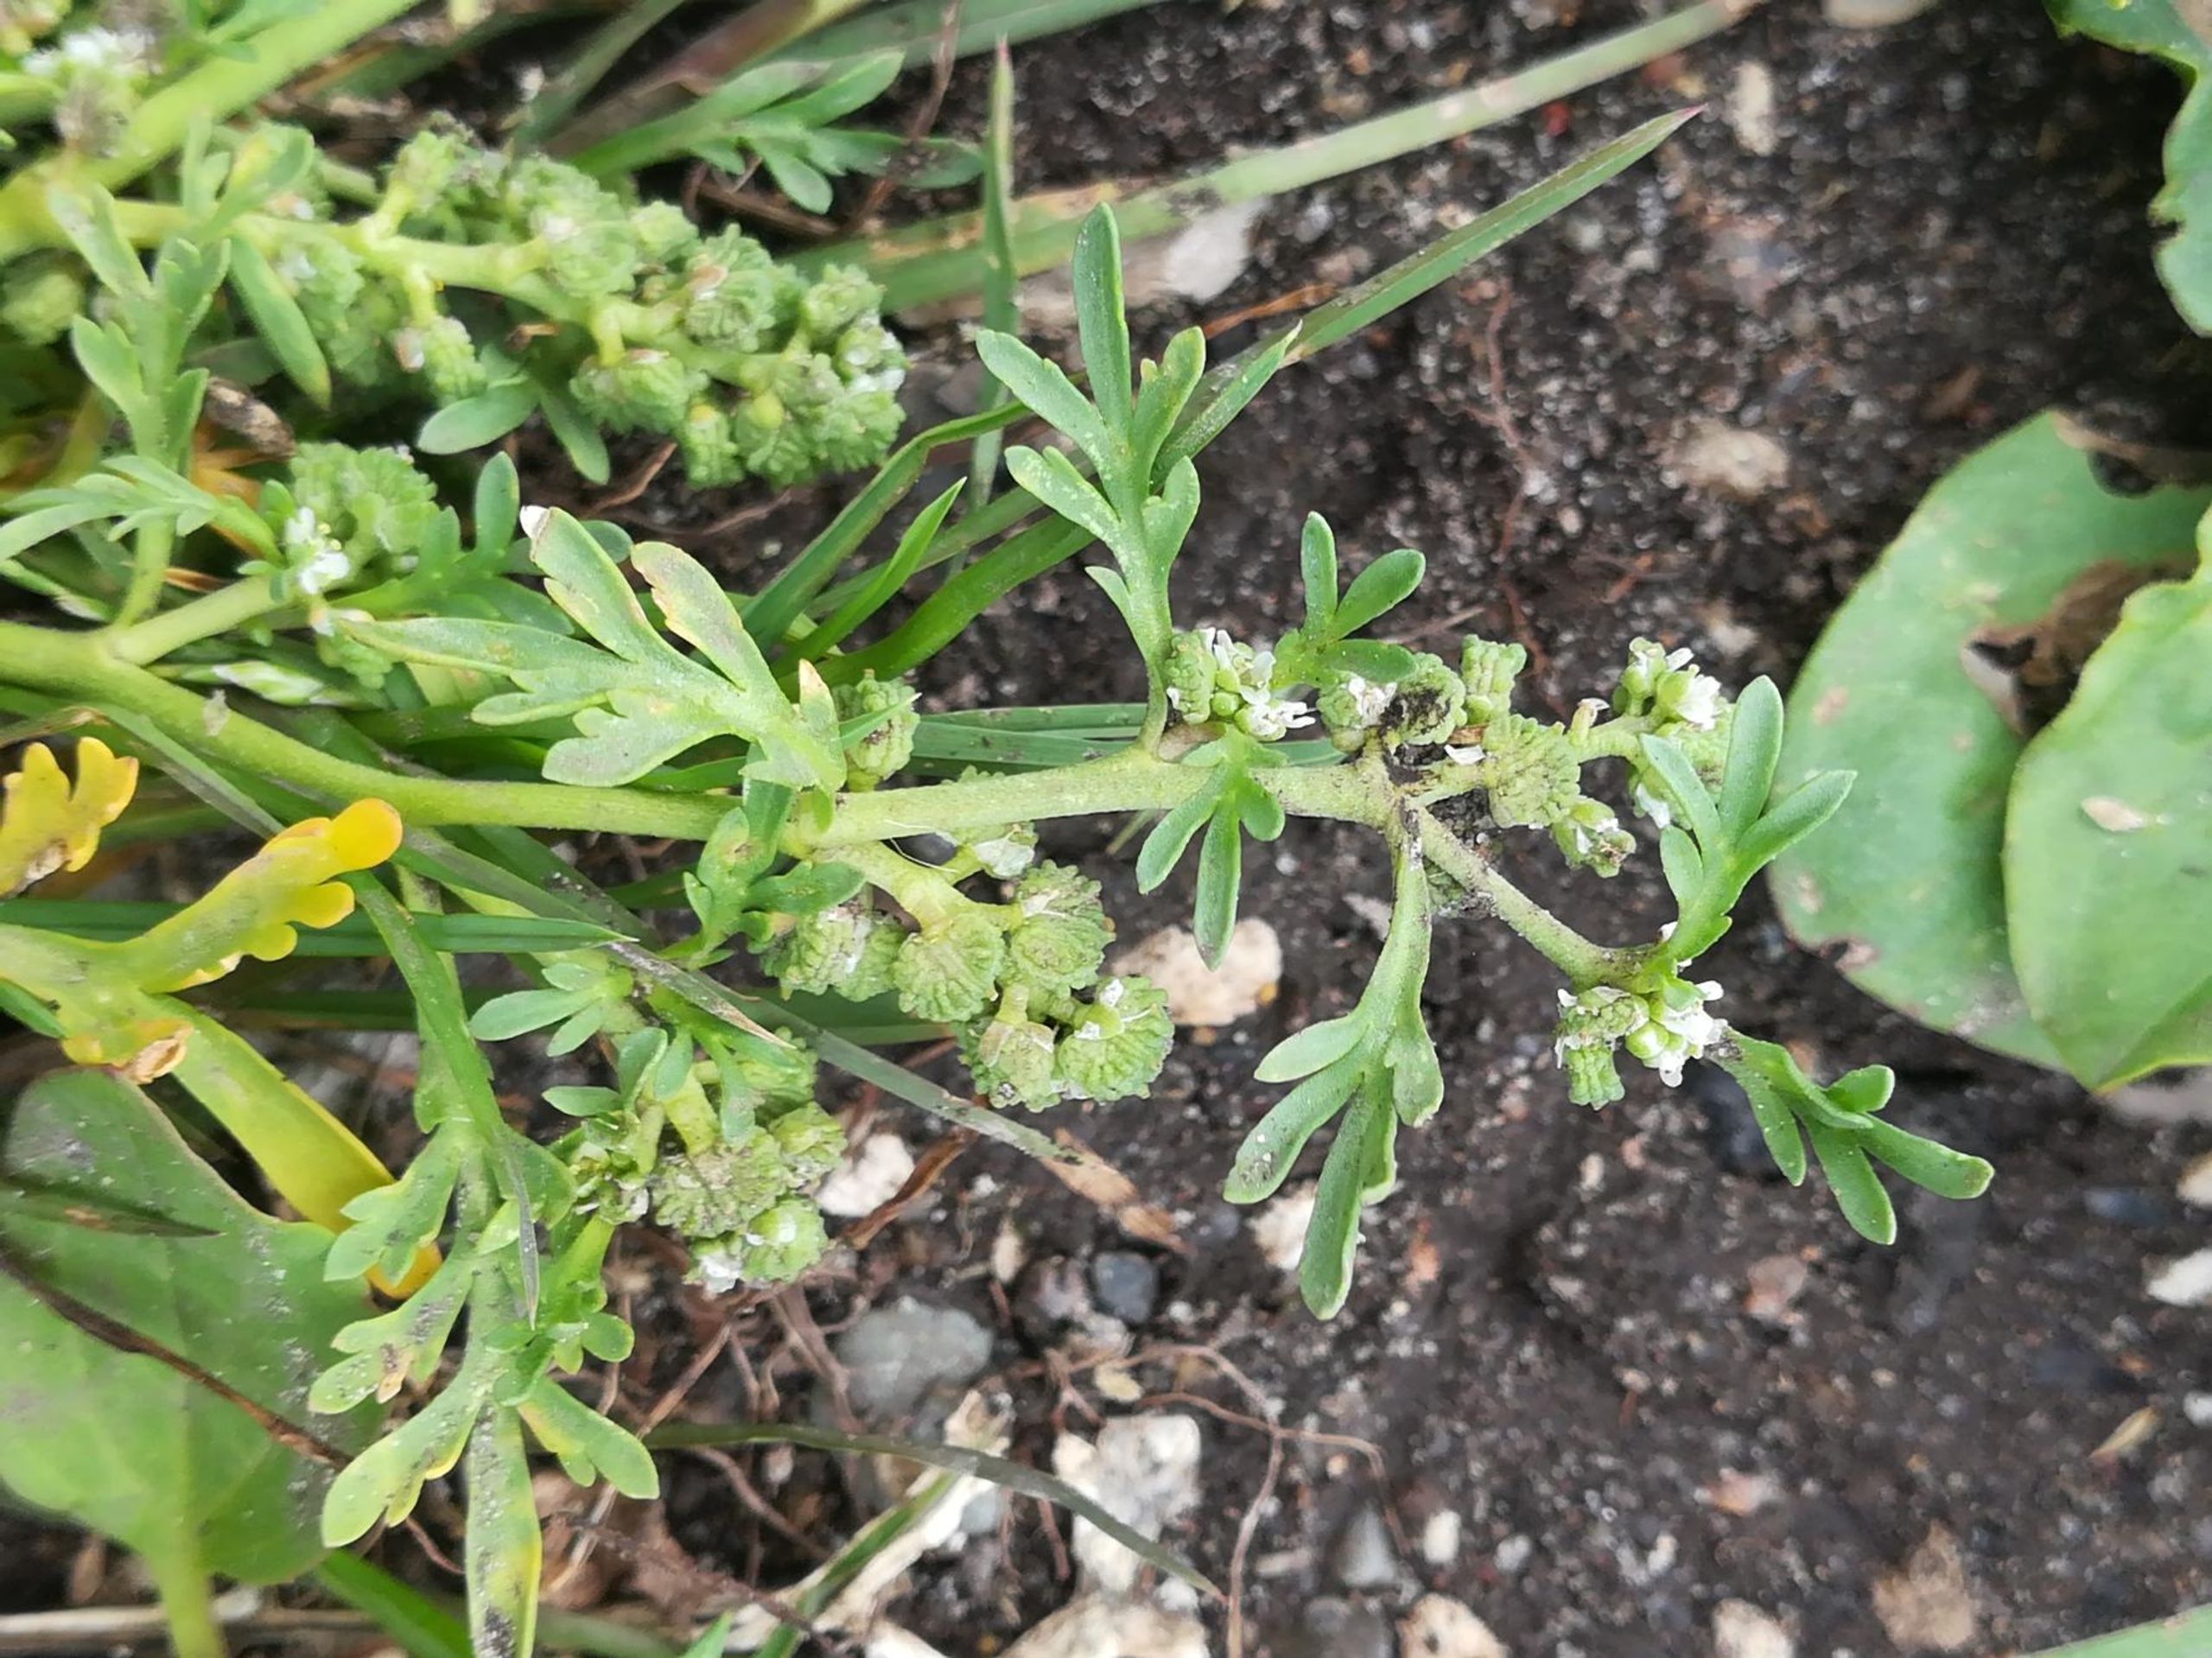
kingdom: Plantae
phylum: Tracheophyta
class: Magnoliopsida
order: Brassicales
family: Brassicaceae
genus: Lepidium
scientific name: Lepidium coronopus
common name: Ravnefod
